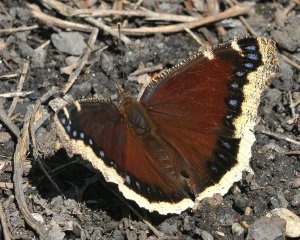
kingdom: Animalia
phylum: Arthropoda
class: Insecta
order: Lepidoptera
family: Nymphalidae
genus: Nymphalis
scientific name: Nymphalis antiopa
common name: Mourning Cloak
